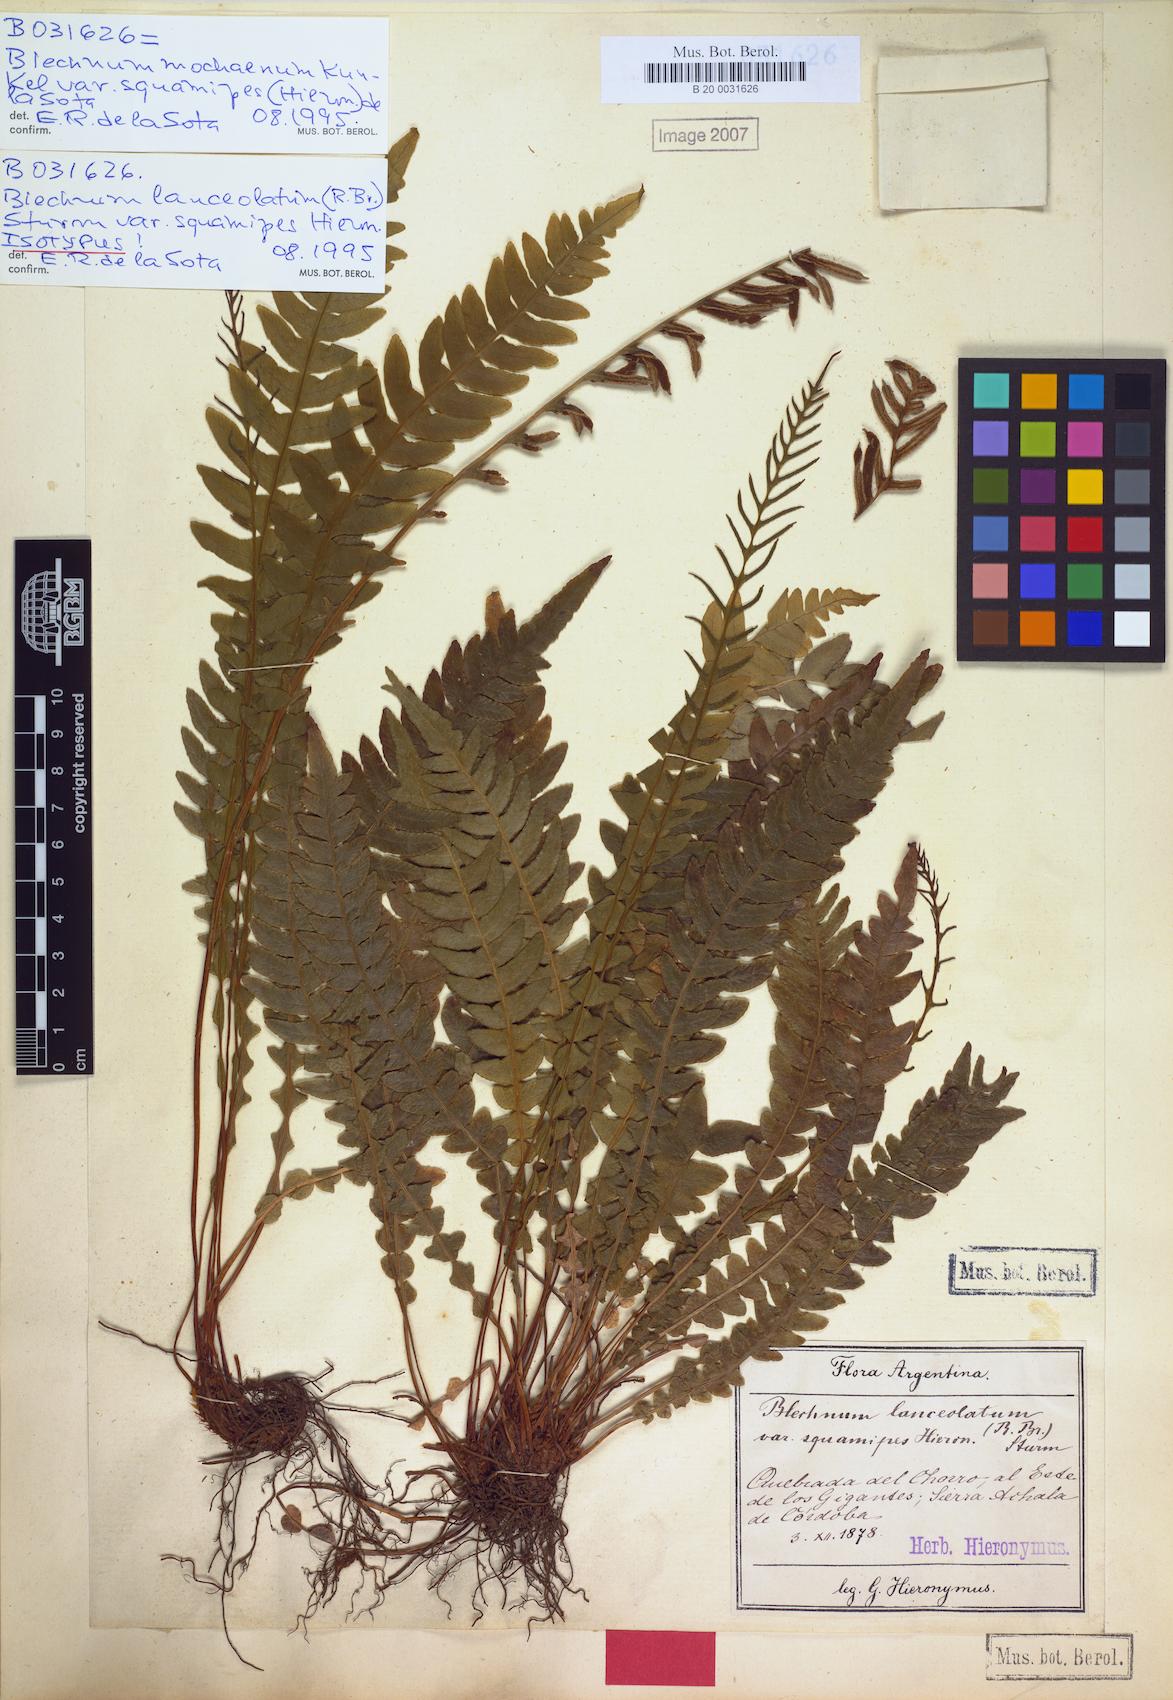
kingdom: Plantae
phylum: Tracheophyta
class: Polypodiopsida
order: Polypodiales
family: Blechnaceae
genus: Austroblechnum
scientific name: Austroblechnum squamipes
